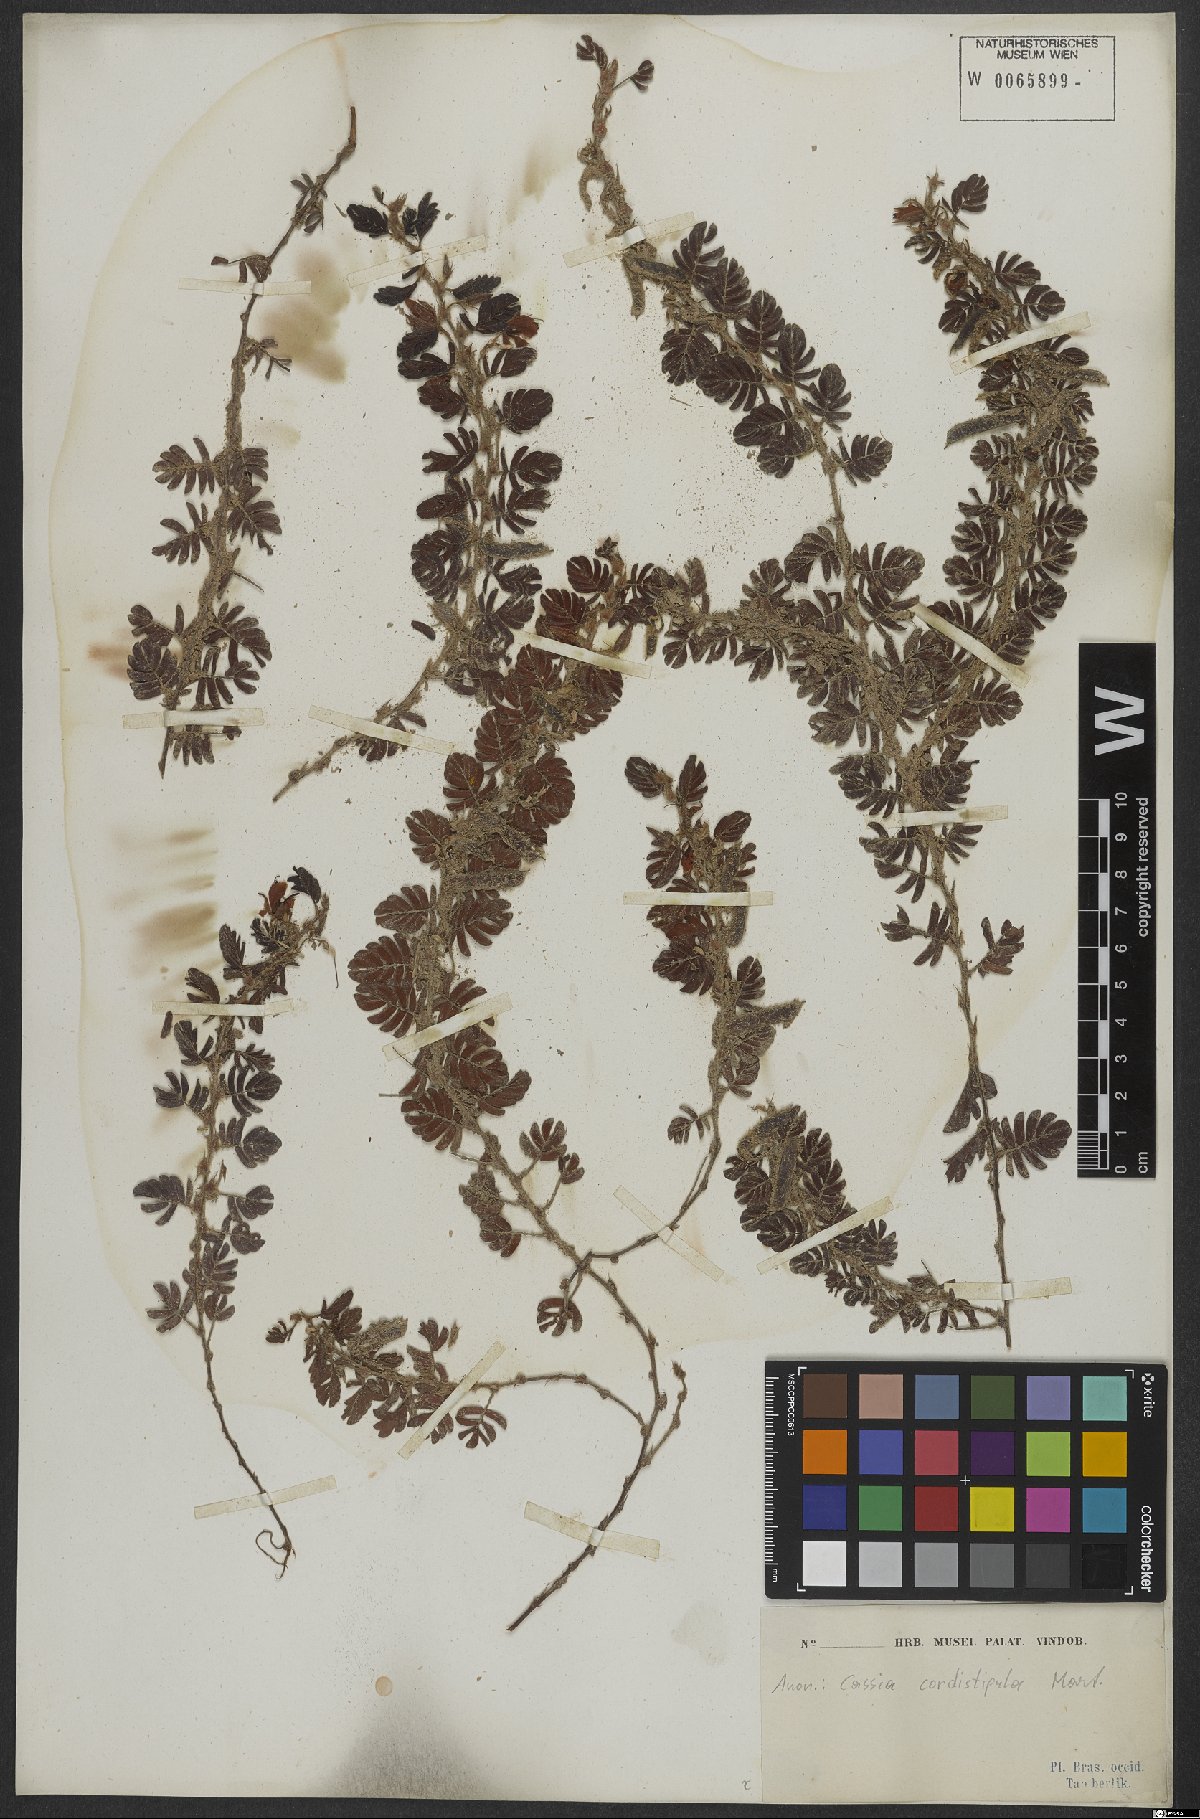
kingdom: Plantae
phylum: Tracheophyta
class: Magnoliopsida
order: Fabales
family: Fabaceae
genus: Chamaecrista
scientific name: Chamaecrista cordistipula
